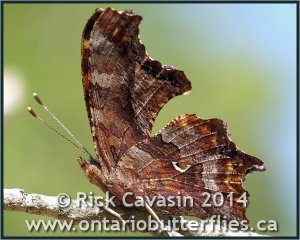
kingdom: Animalia
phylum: Arthropoda
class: Insecta
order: Lepidoptera
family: Nymphalidae
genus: Polygonia
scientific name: Polygonia comma
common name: Eastern Comma
